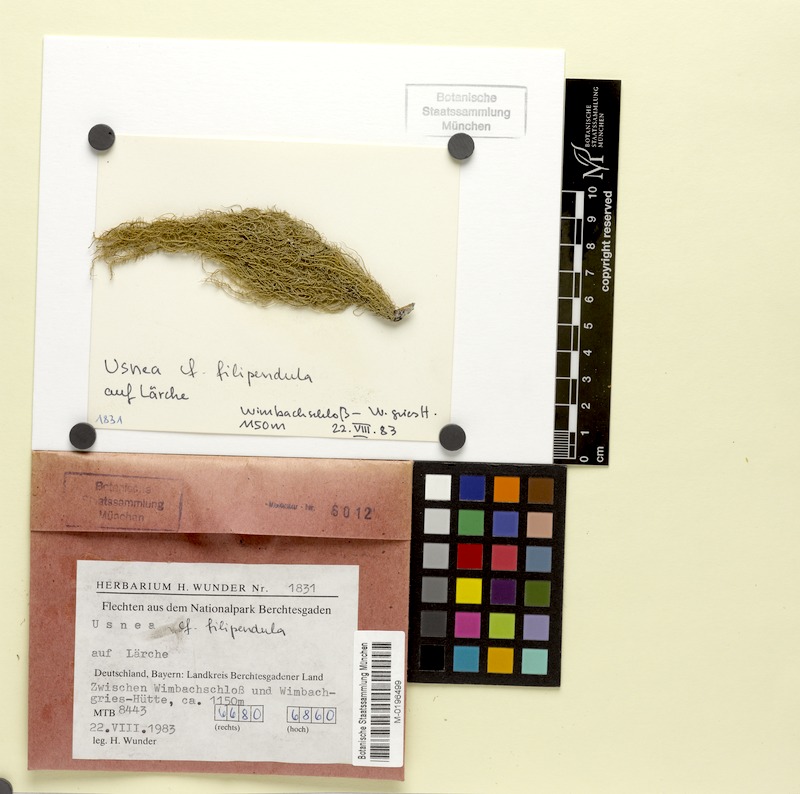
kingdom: Fungi
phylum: Ascomycota
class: Lecanoromycetes
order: Lecanorales
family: Parmeliaceae
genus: Usnea
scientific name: Usnea filipendula
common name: Fishbone beard lichen
